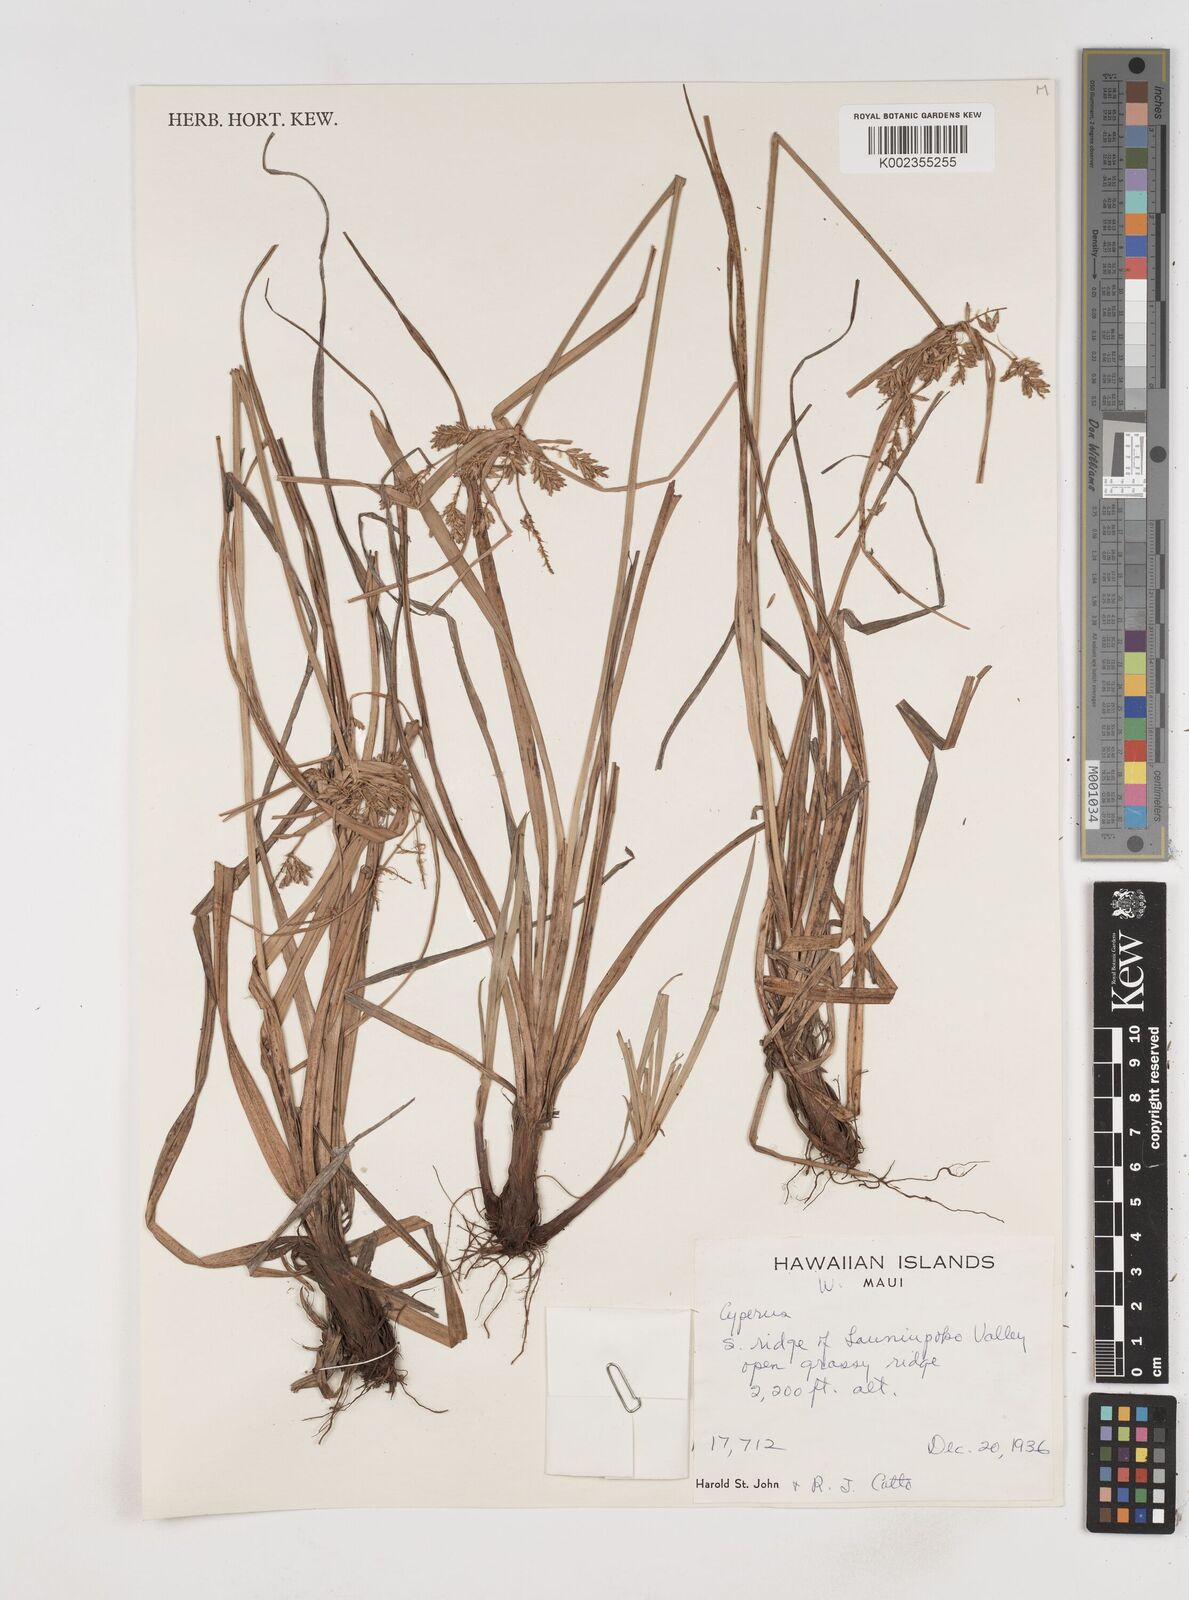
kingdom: Plantae
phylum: Tracheophyta
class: Liliopsida
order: Poales
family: Cyperaceae
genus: Cyperus
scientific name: Cyperus
